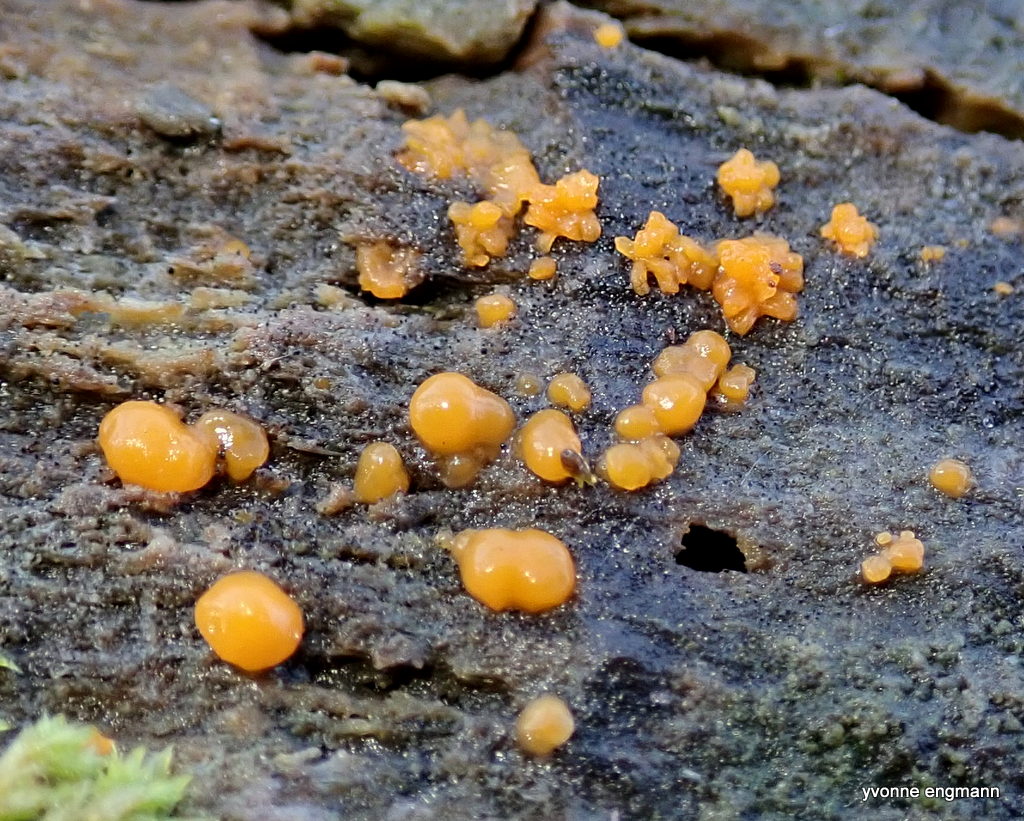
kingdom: Fungi
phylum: Basidiomycota
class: Dacrymycetes
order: Dacrymycetales
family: Dacrymycetaceae
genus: Dacrymyces
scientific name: Dacrymyces stillatus
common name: almindelig tåresvamp
